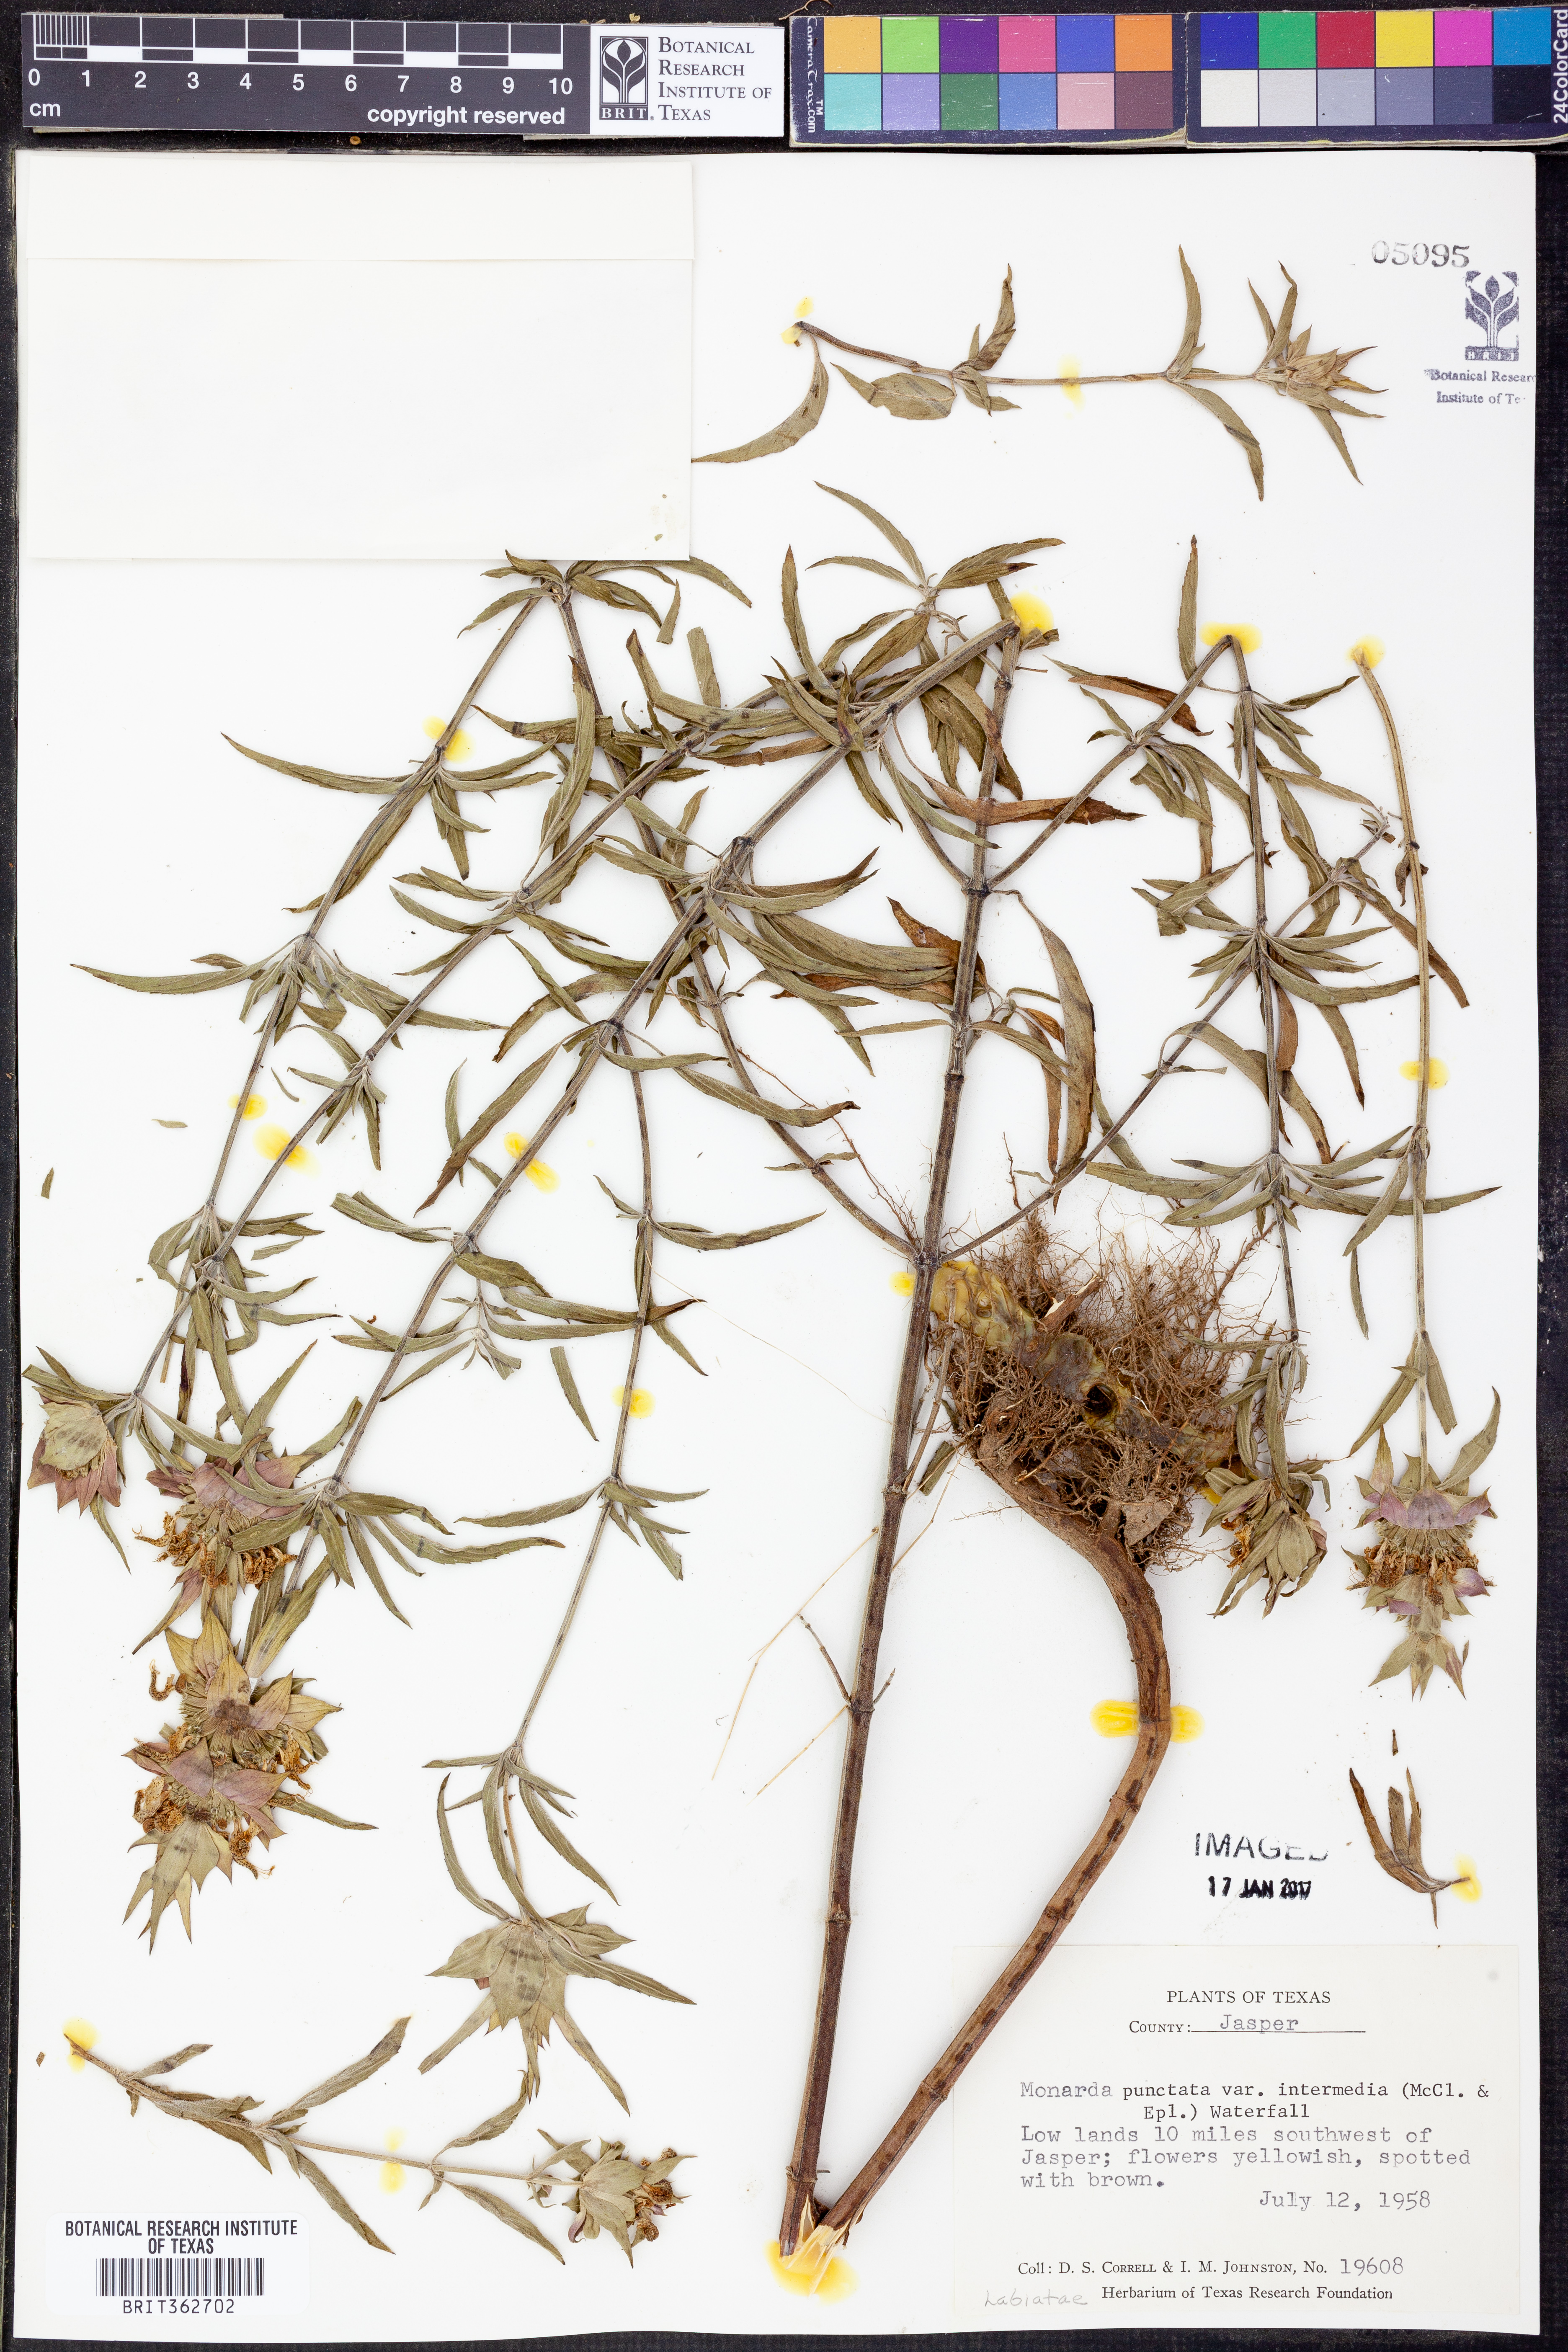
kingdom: Plantae
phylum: Tracheophyta
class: Magnoliopsida
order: Lamiales
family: Lamiaceae
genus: Monarda
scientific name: Monarda punctata
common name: Dotted monarda
